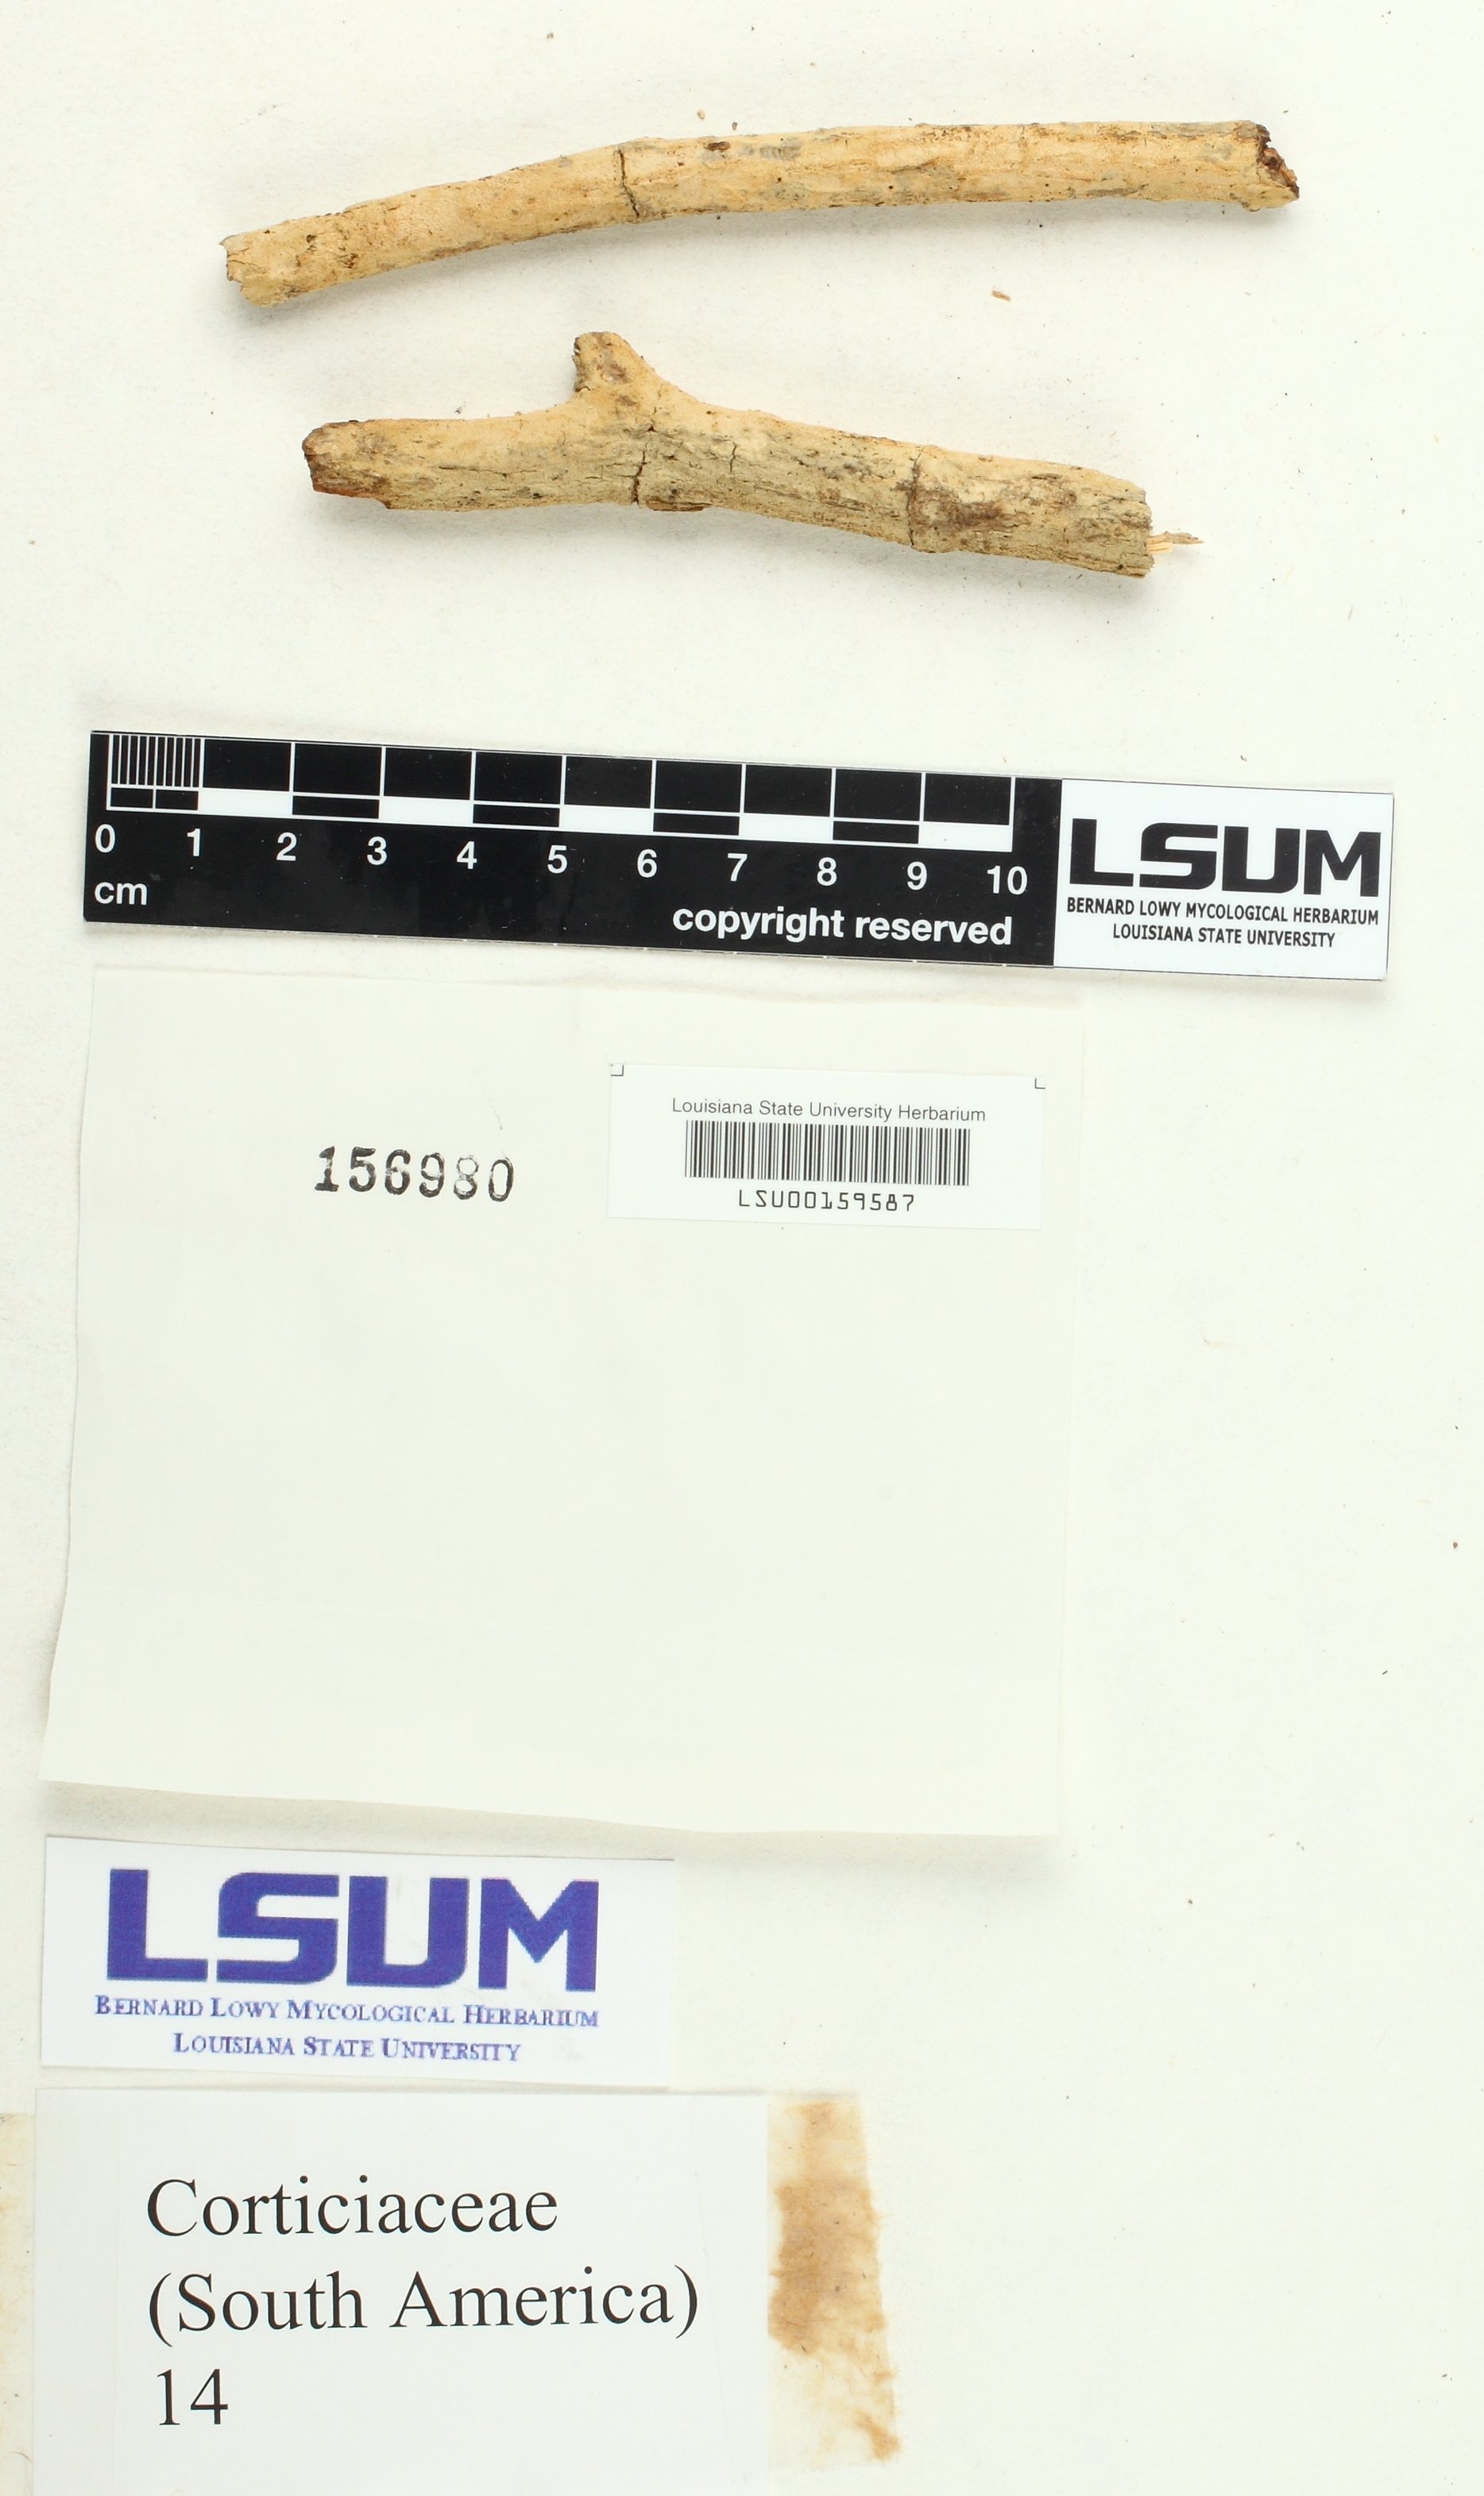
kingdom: Fungi
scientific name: Fungi
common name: Fungi
